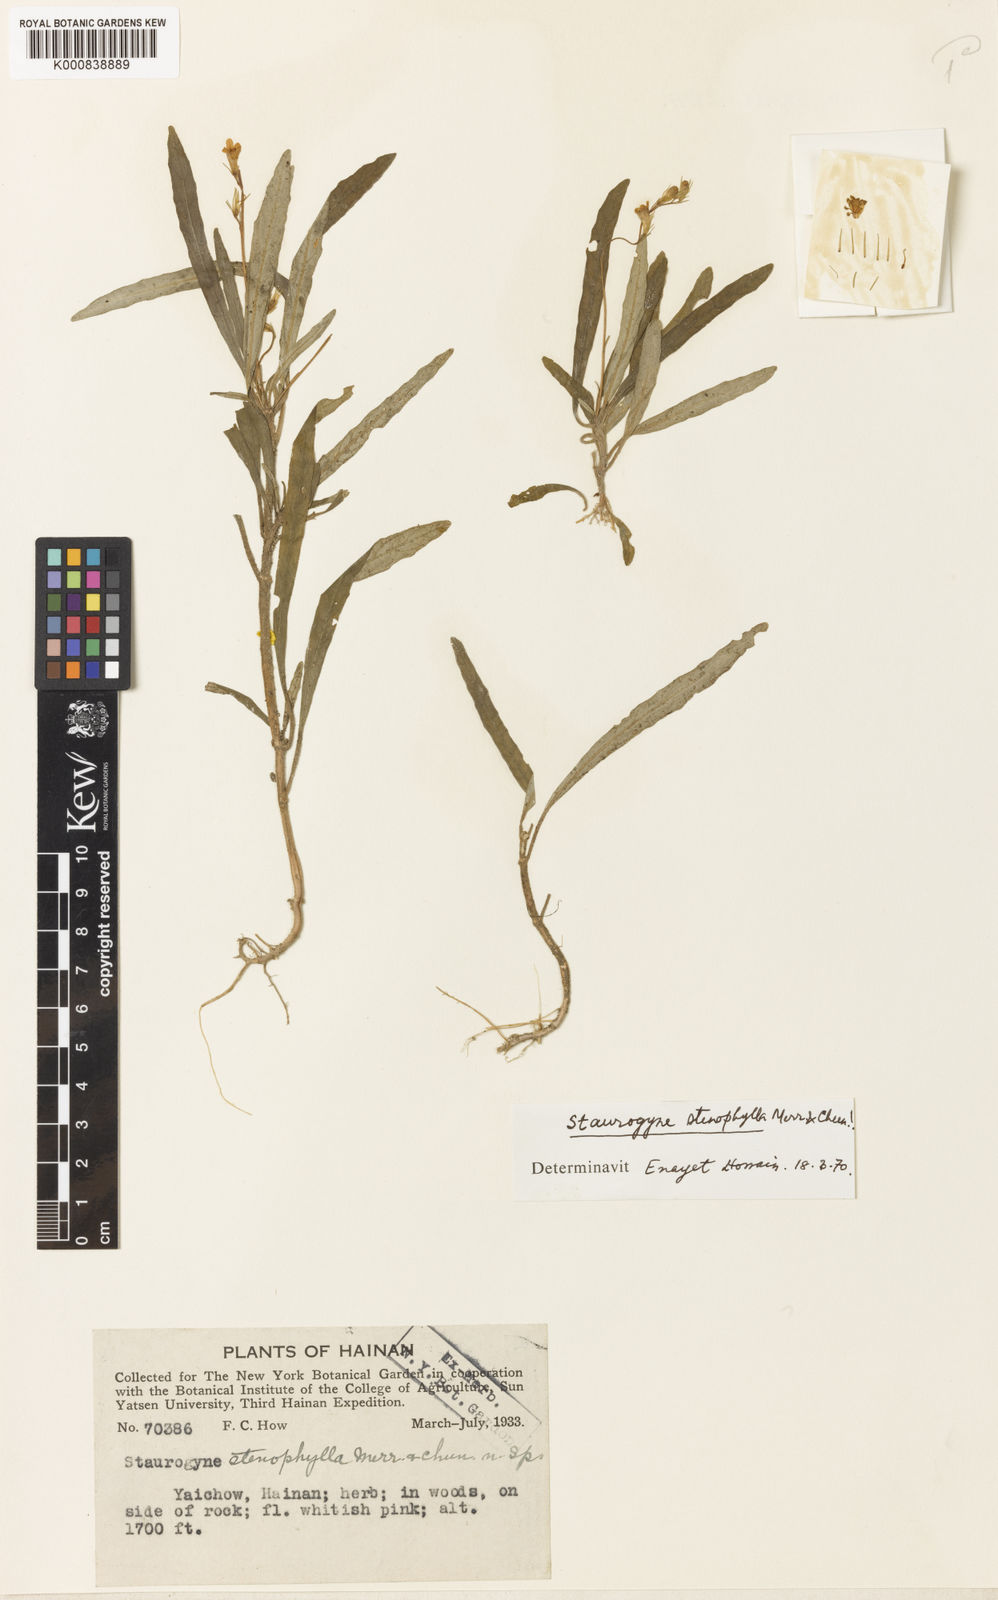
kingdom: Plantae
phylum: Tracheophyta
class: Magnoliopsida
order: Lamiales
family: Acanthaceae
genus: Staurogyne
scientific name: Staurogyne stenophylla
